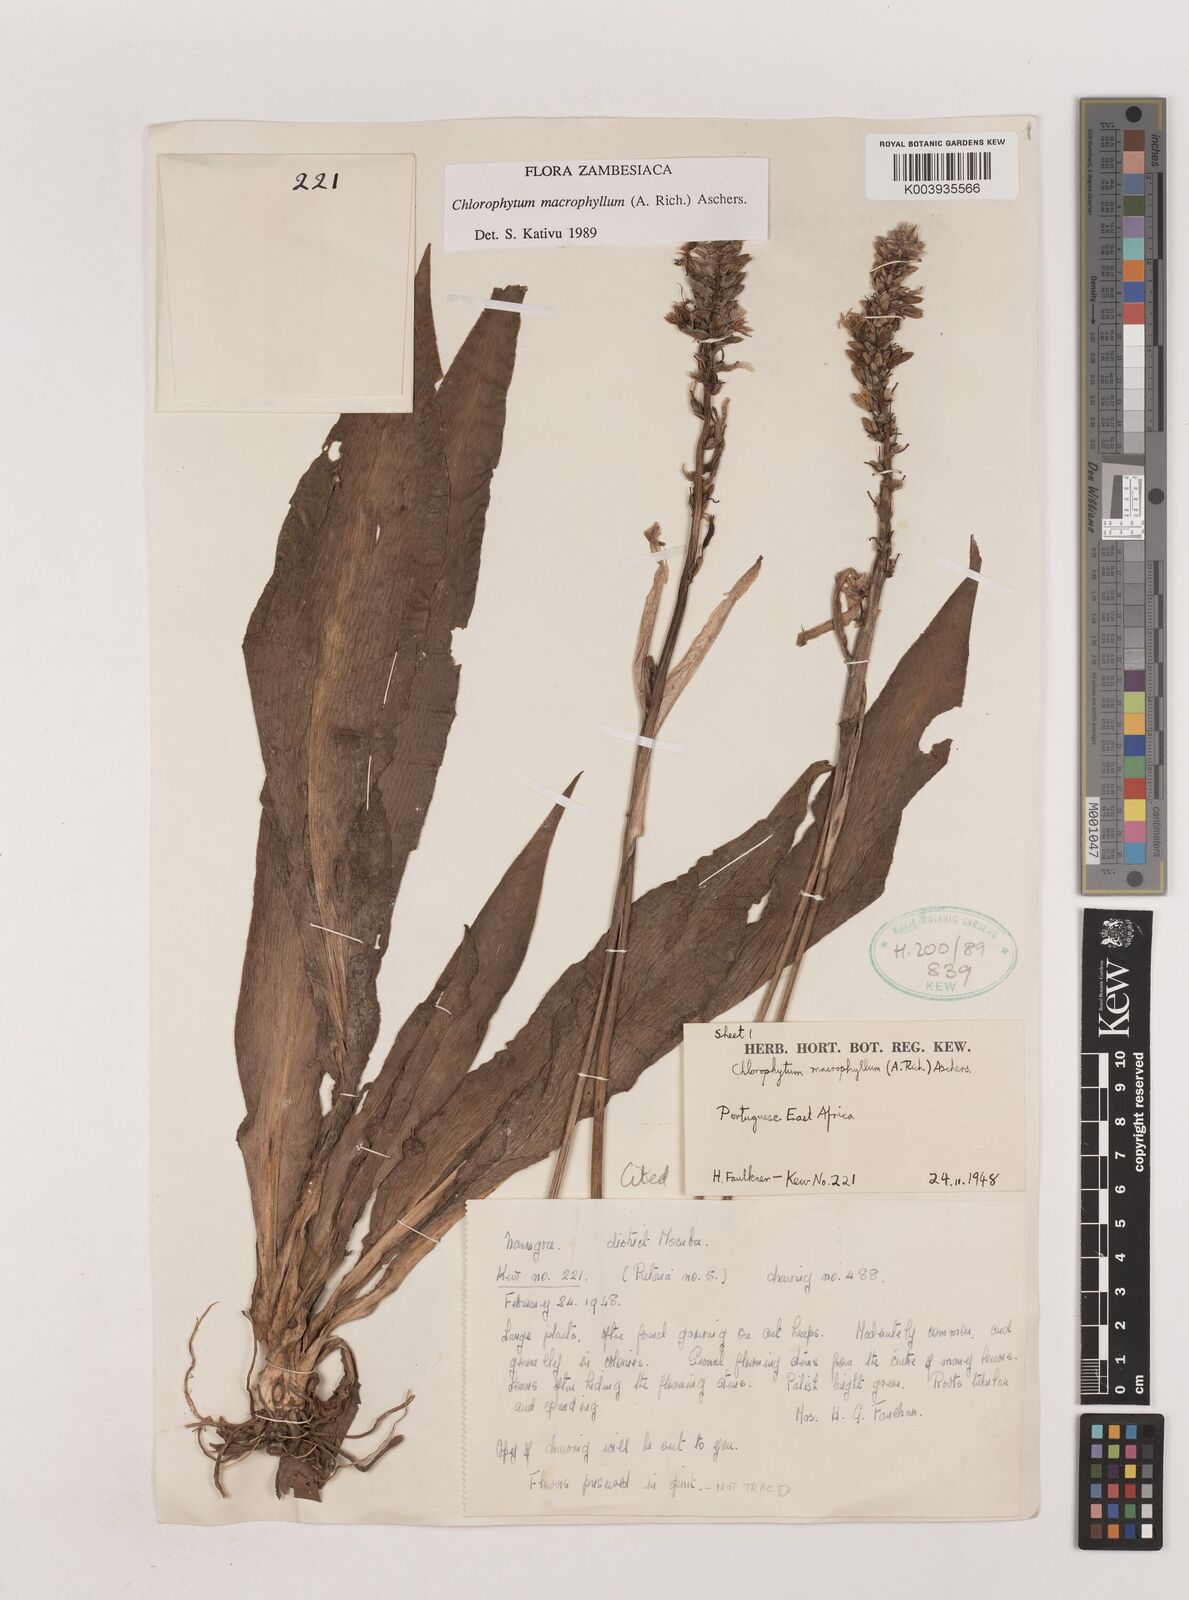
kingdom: Plantae
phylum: Tracheophyta
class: Liliopsida
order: Asparagales
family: Asparagaceae
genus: Chlorophytum
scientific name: Chlorophytum macrophyllum
